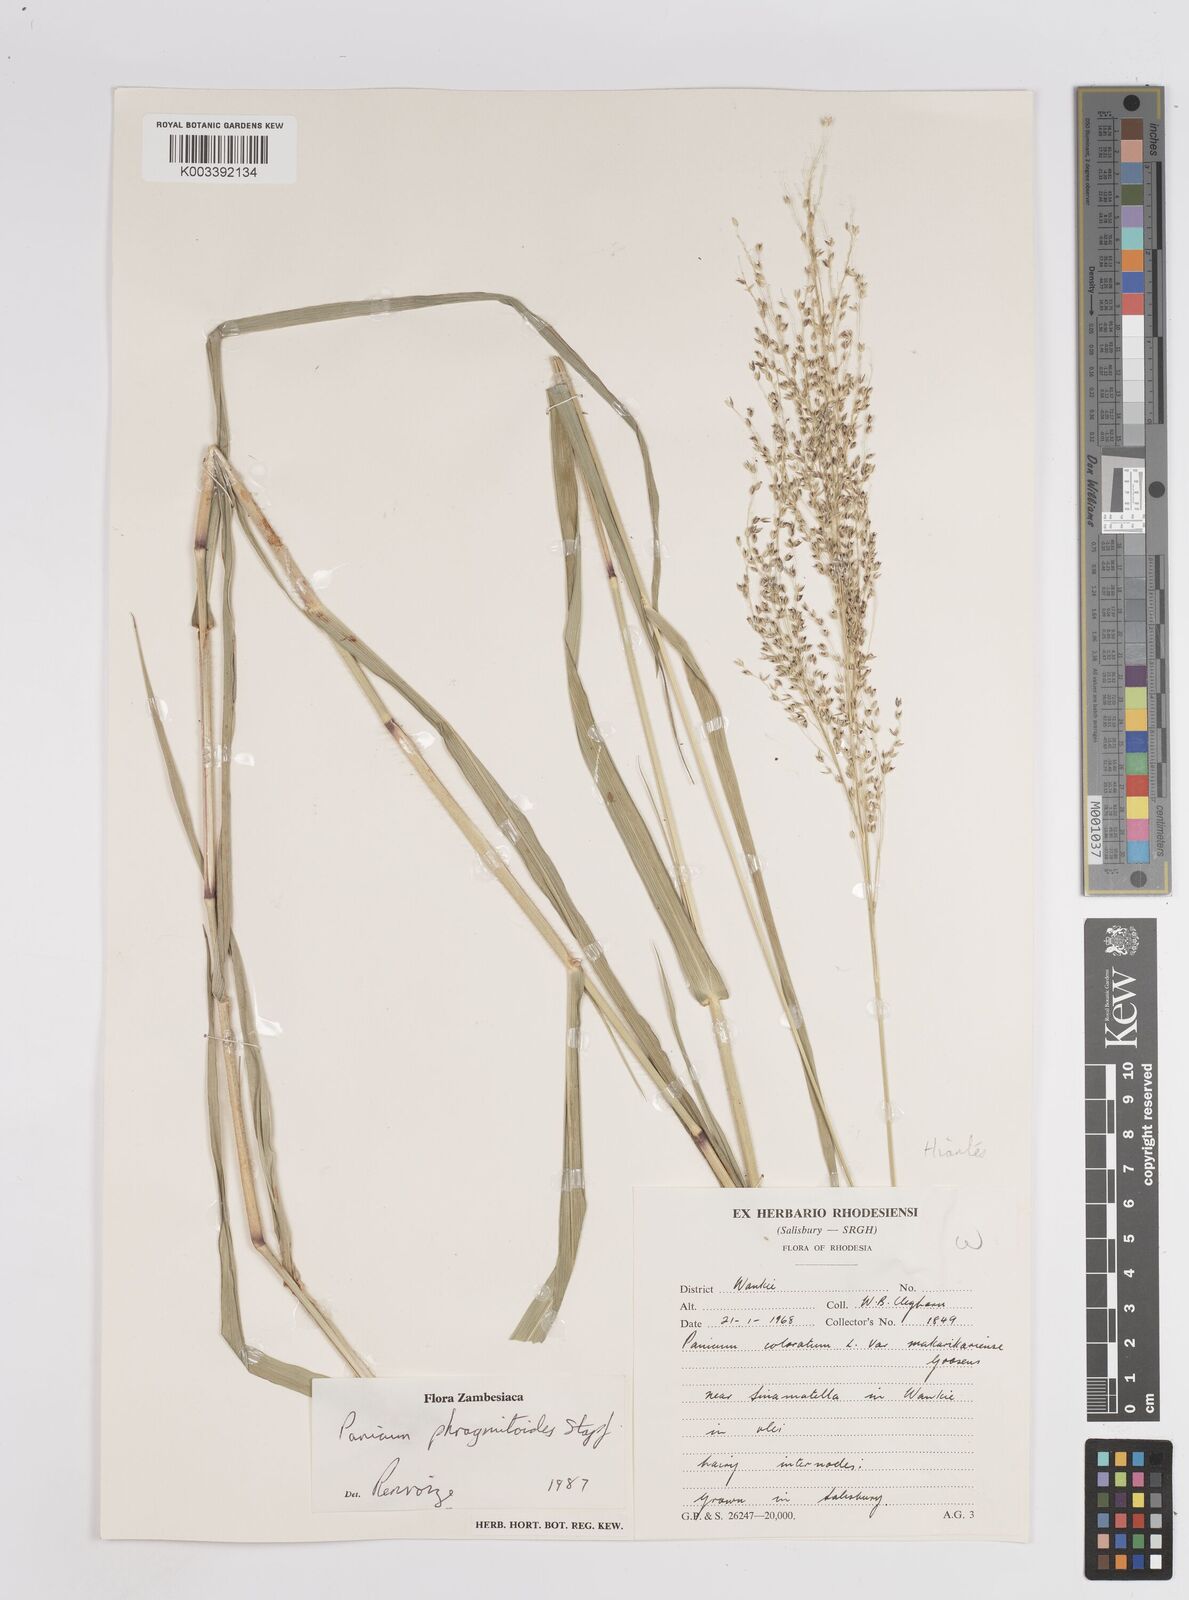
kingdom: Plantae
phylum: Tracheophyta
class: Liliopsida
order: Poales
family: Poaceae
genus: Panicum
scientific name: Panicum phragmitoides
